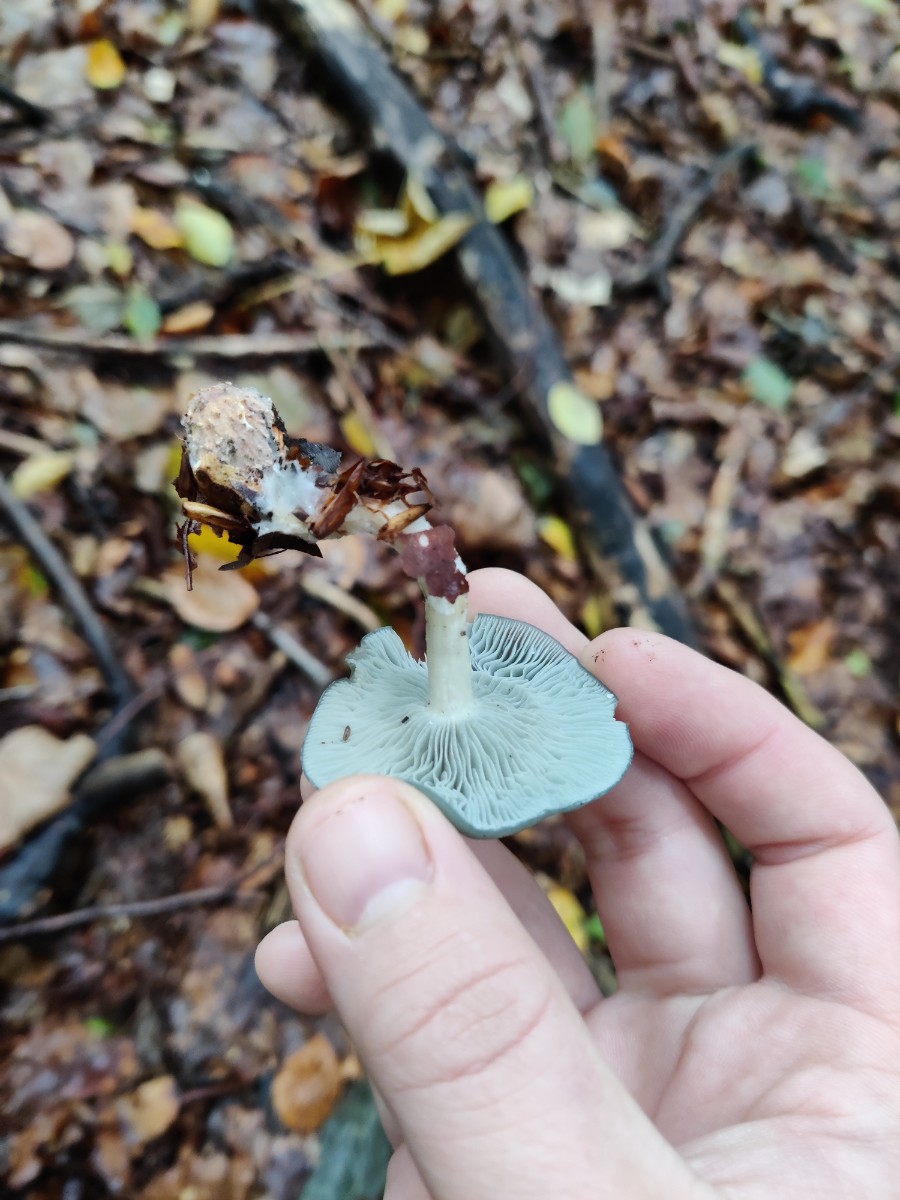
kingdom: Fungi
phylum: Basidiomycota
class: Agaricomycetes
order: Agaricales
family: Tricholomataceae
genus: Clitocybe
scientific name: Clitocybe odora
